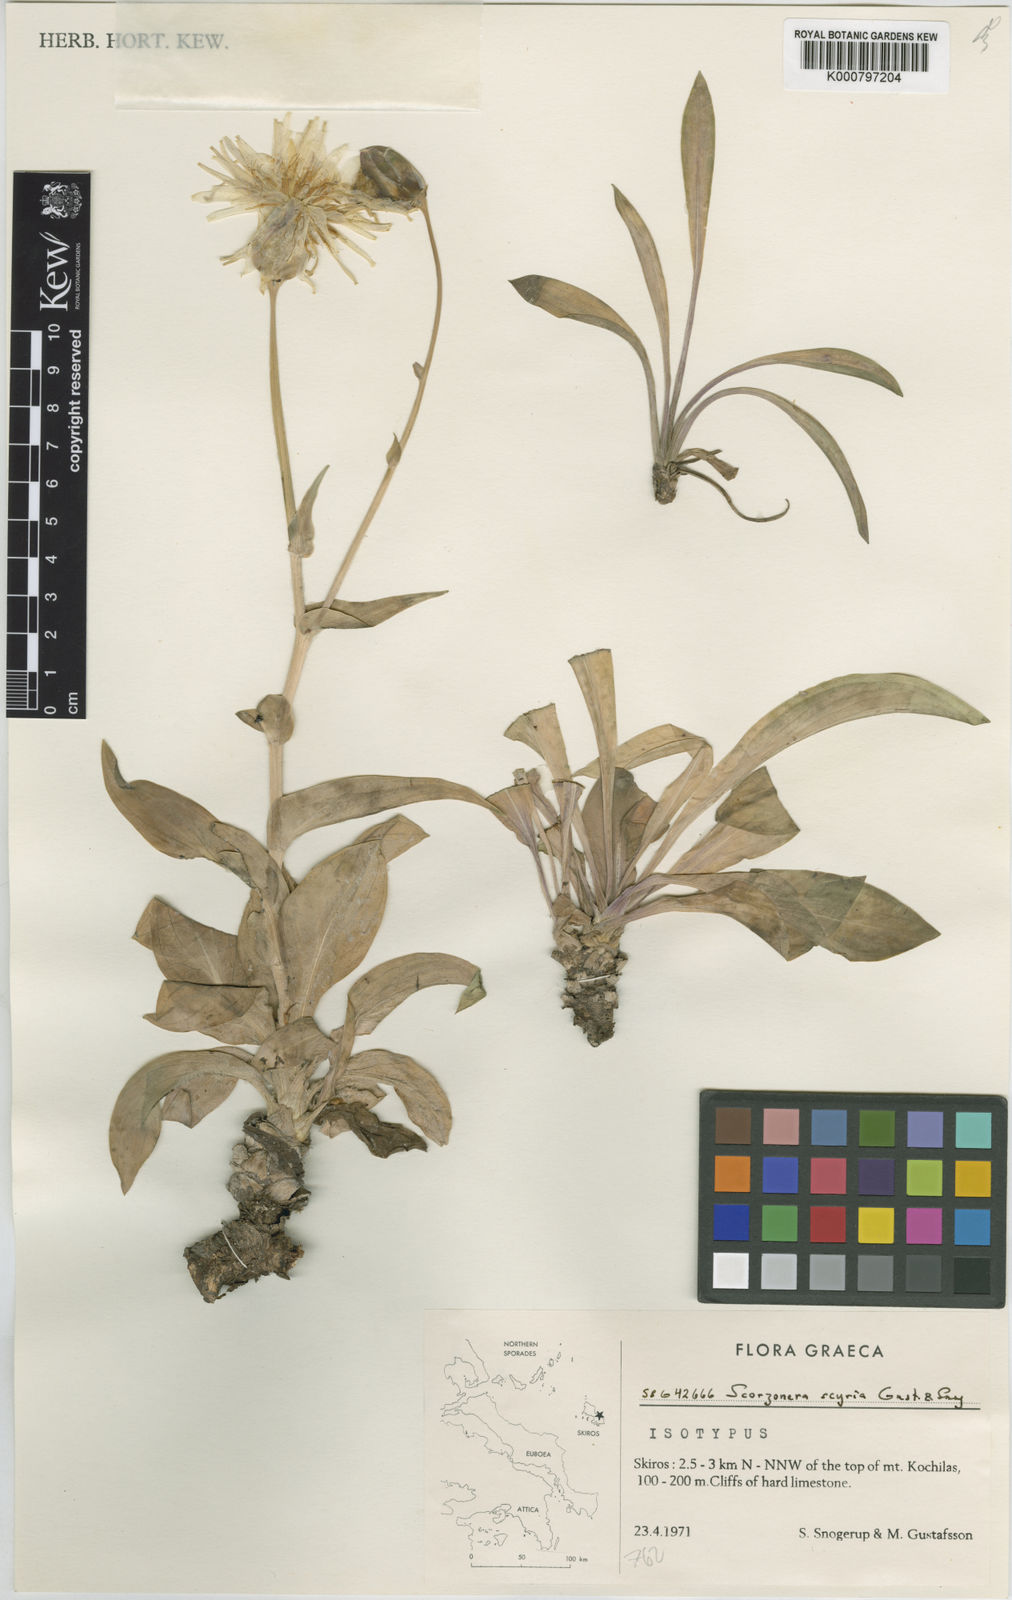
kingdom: Plantae
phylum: Tracheophyta
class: Magnoliopsida
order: Asterales
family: Asteraceae
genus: Scorzonera
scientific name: Scorzonera scyria
